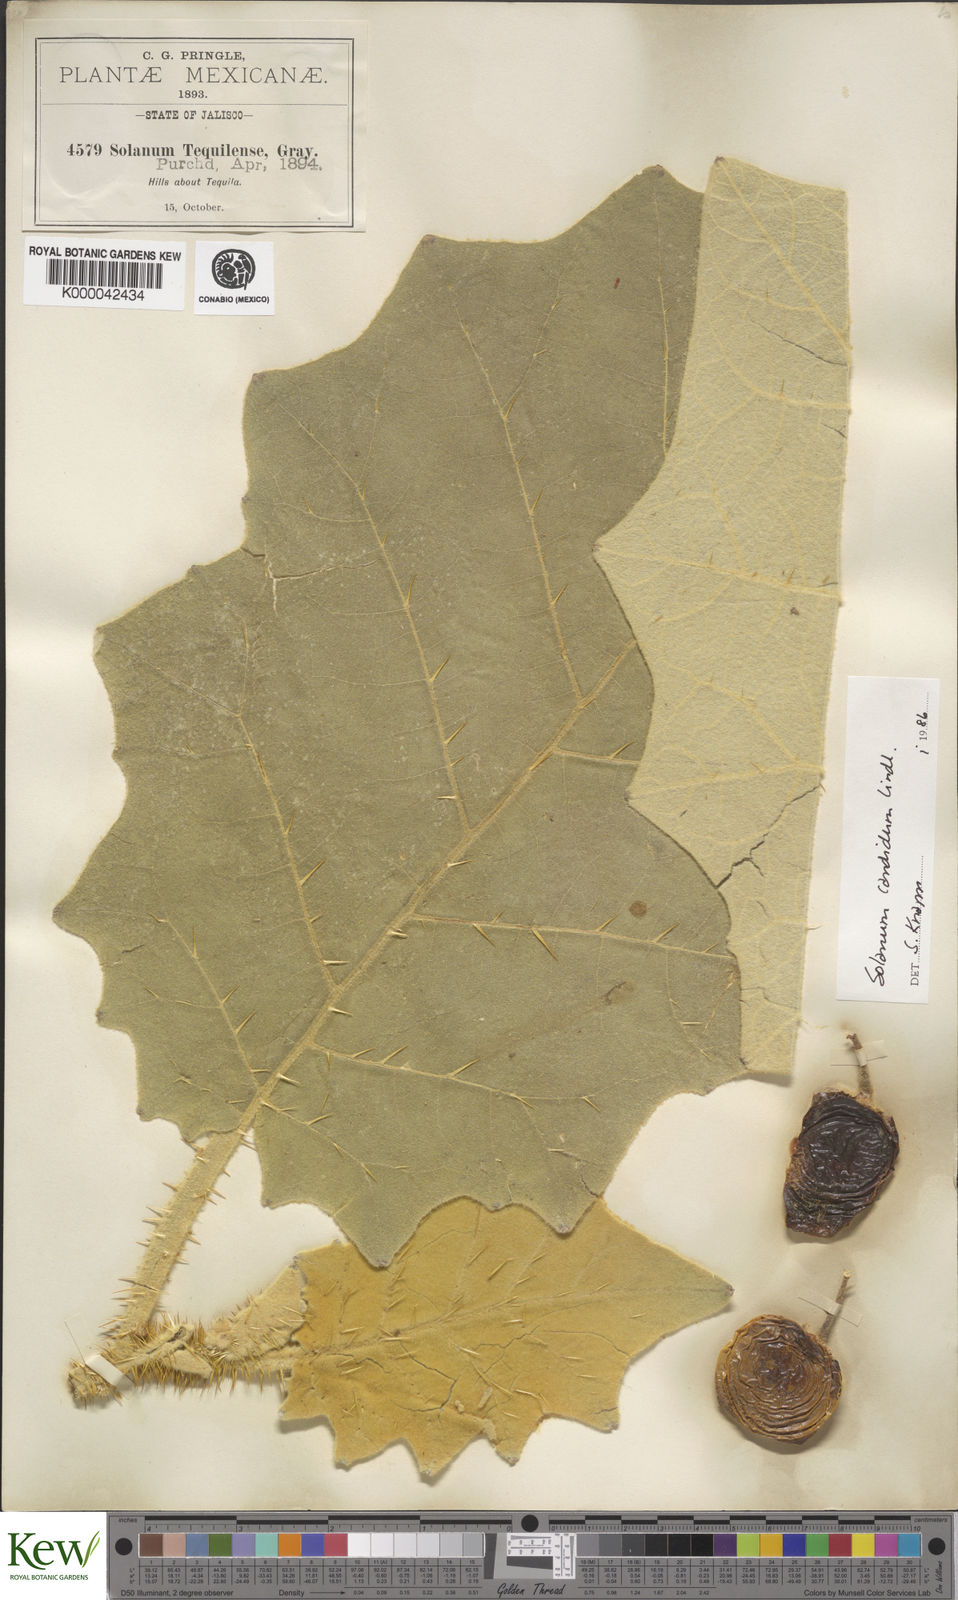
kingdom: Plantae
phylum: Tracheophyta
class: Magnoliopsida
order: Solanales
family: Solanaceae
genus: Solanum
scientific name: Solanum candidum
